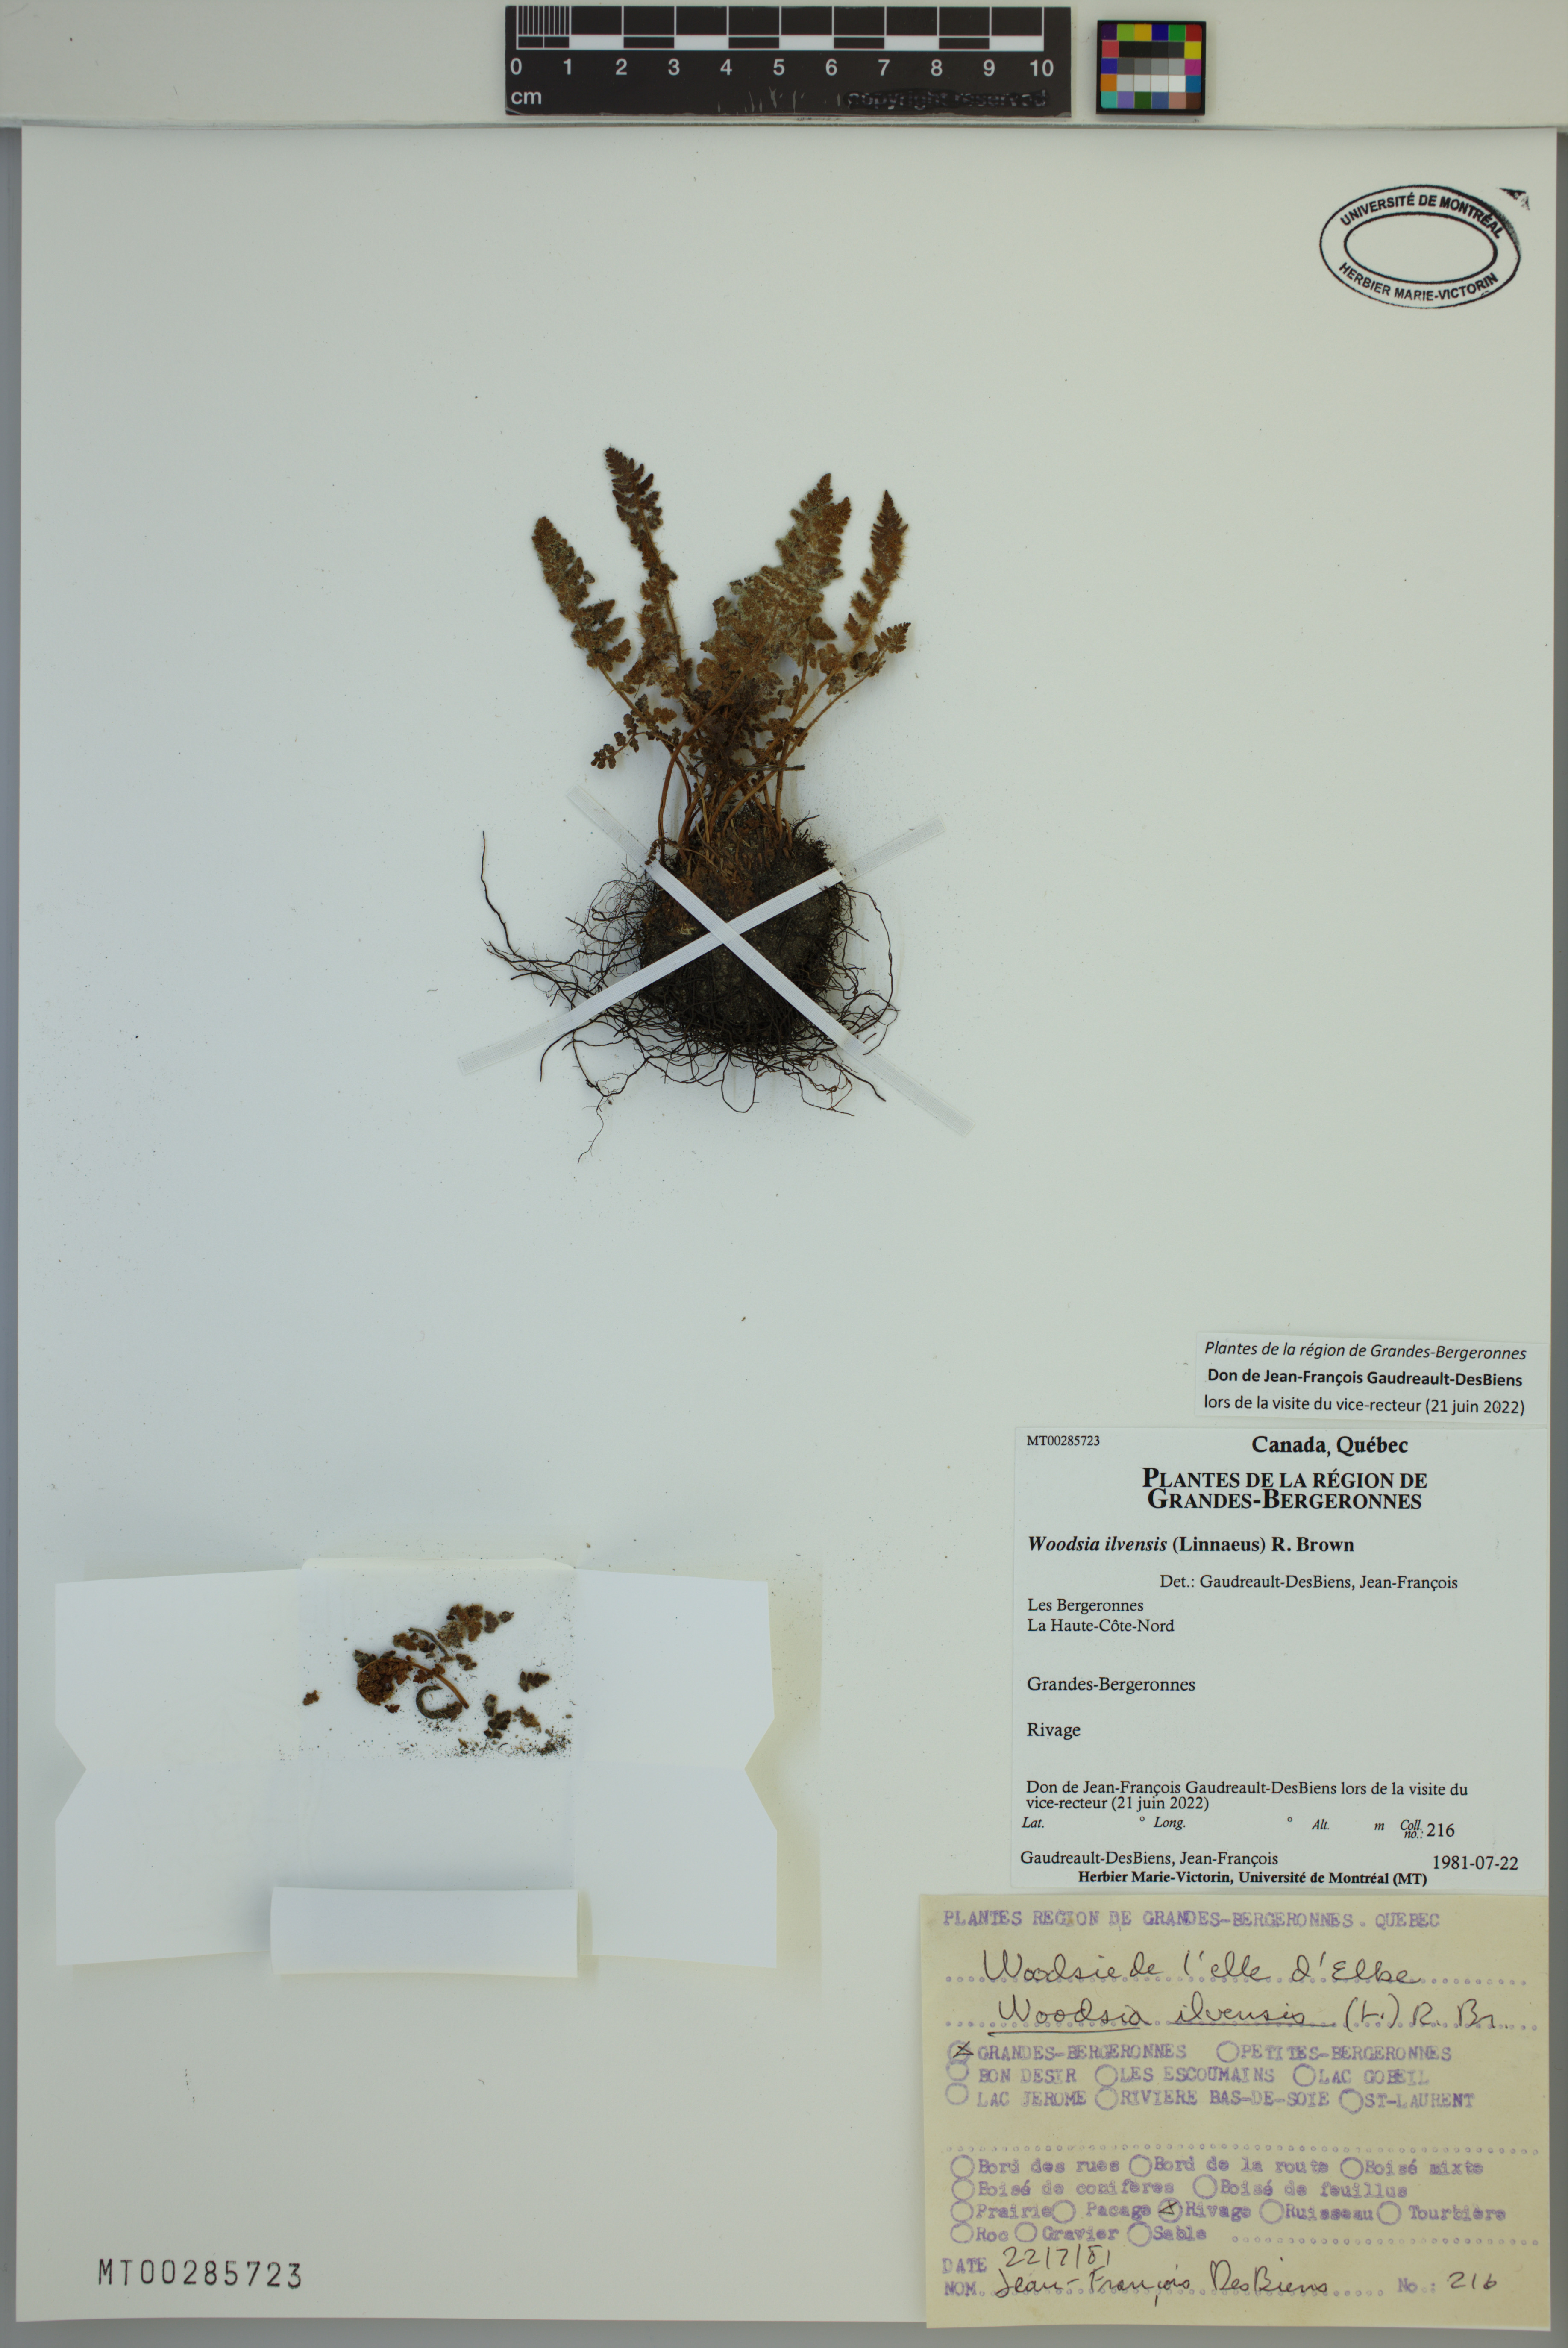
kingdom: Plantae
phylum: Tracheophyta
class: Polypodiopsida
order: Polypodiales
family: Woodsiaceae
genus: Woodsia
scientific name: Woodsia ilvensis
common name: Fragrant woodsia
